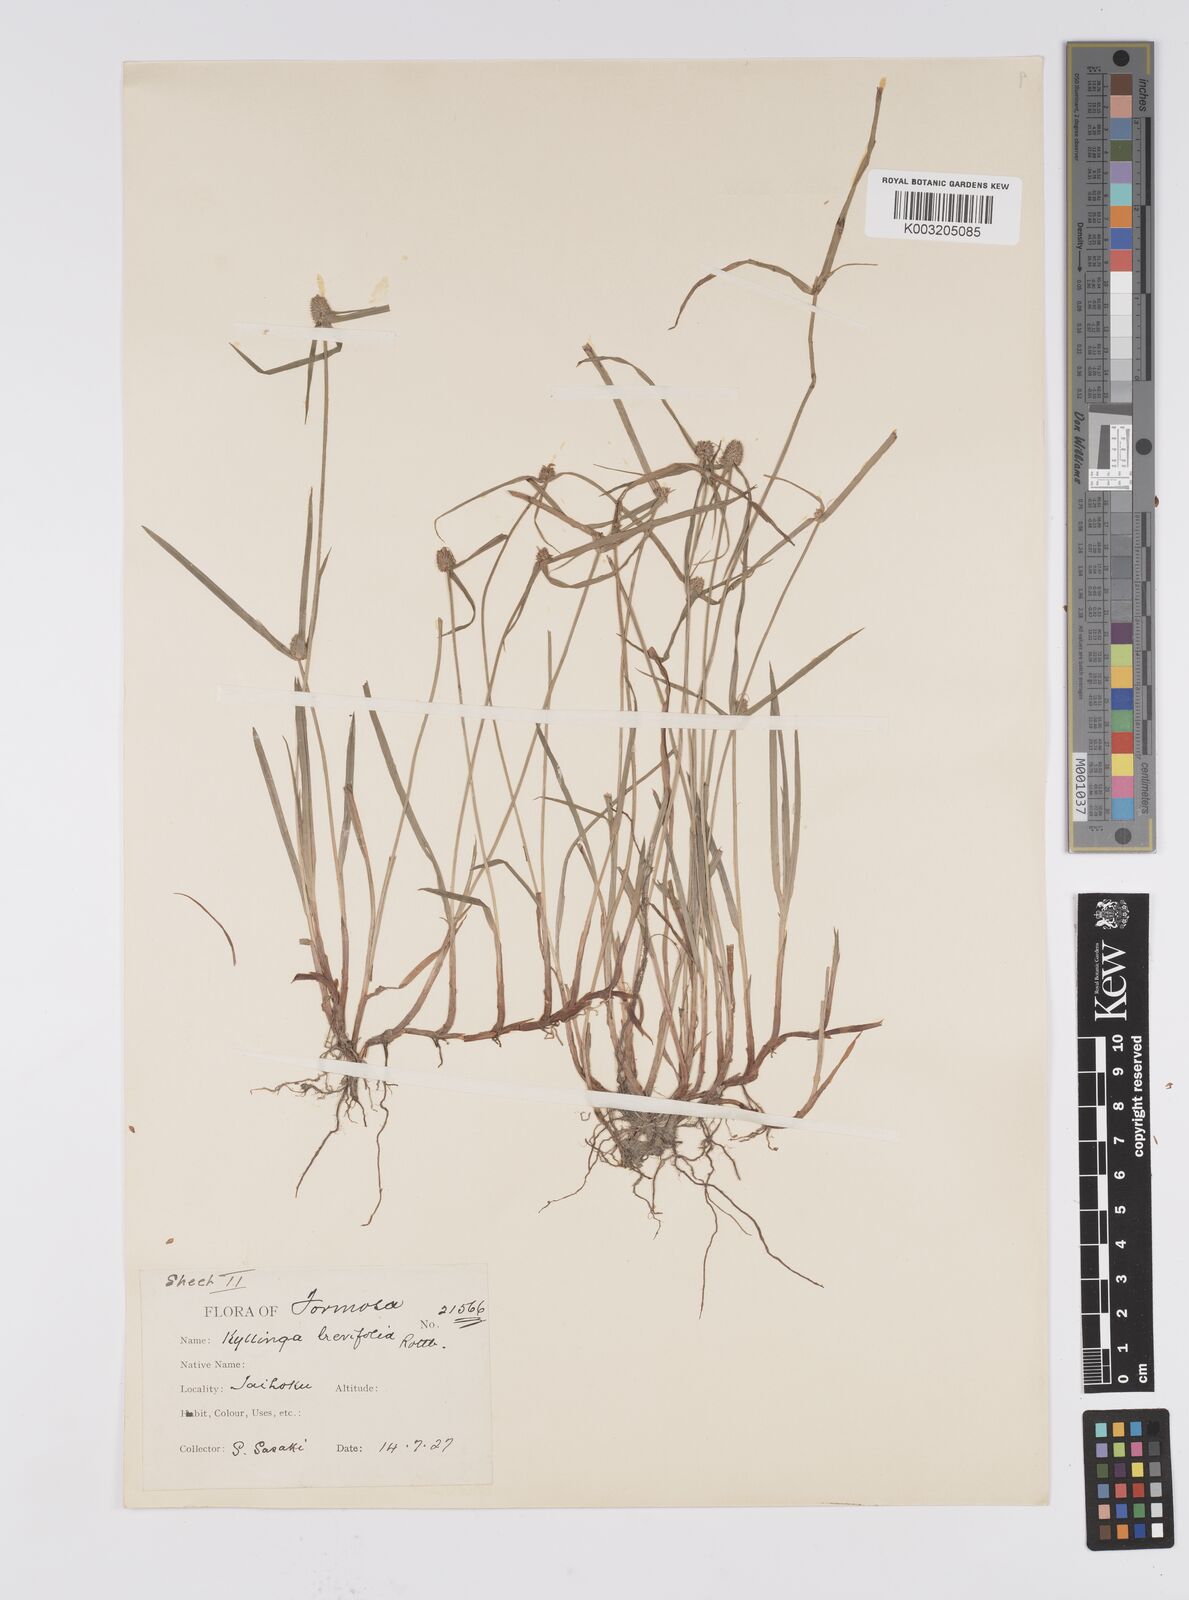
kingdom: Plantae
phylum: Tracheophyta
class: Liliopsida
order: Poales
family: Cyperaceae
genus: Cyperus
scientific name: Cyperus brevifolius
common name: Globe kyllinga
